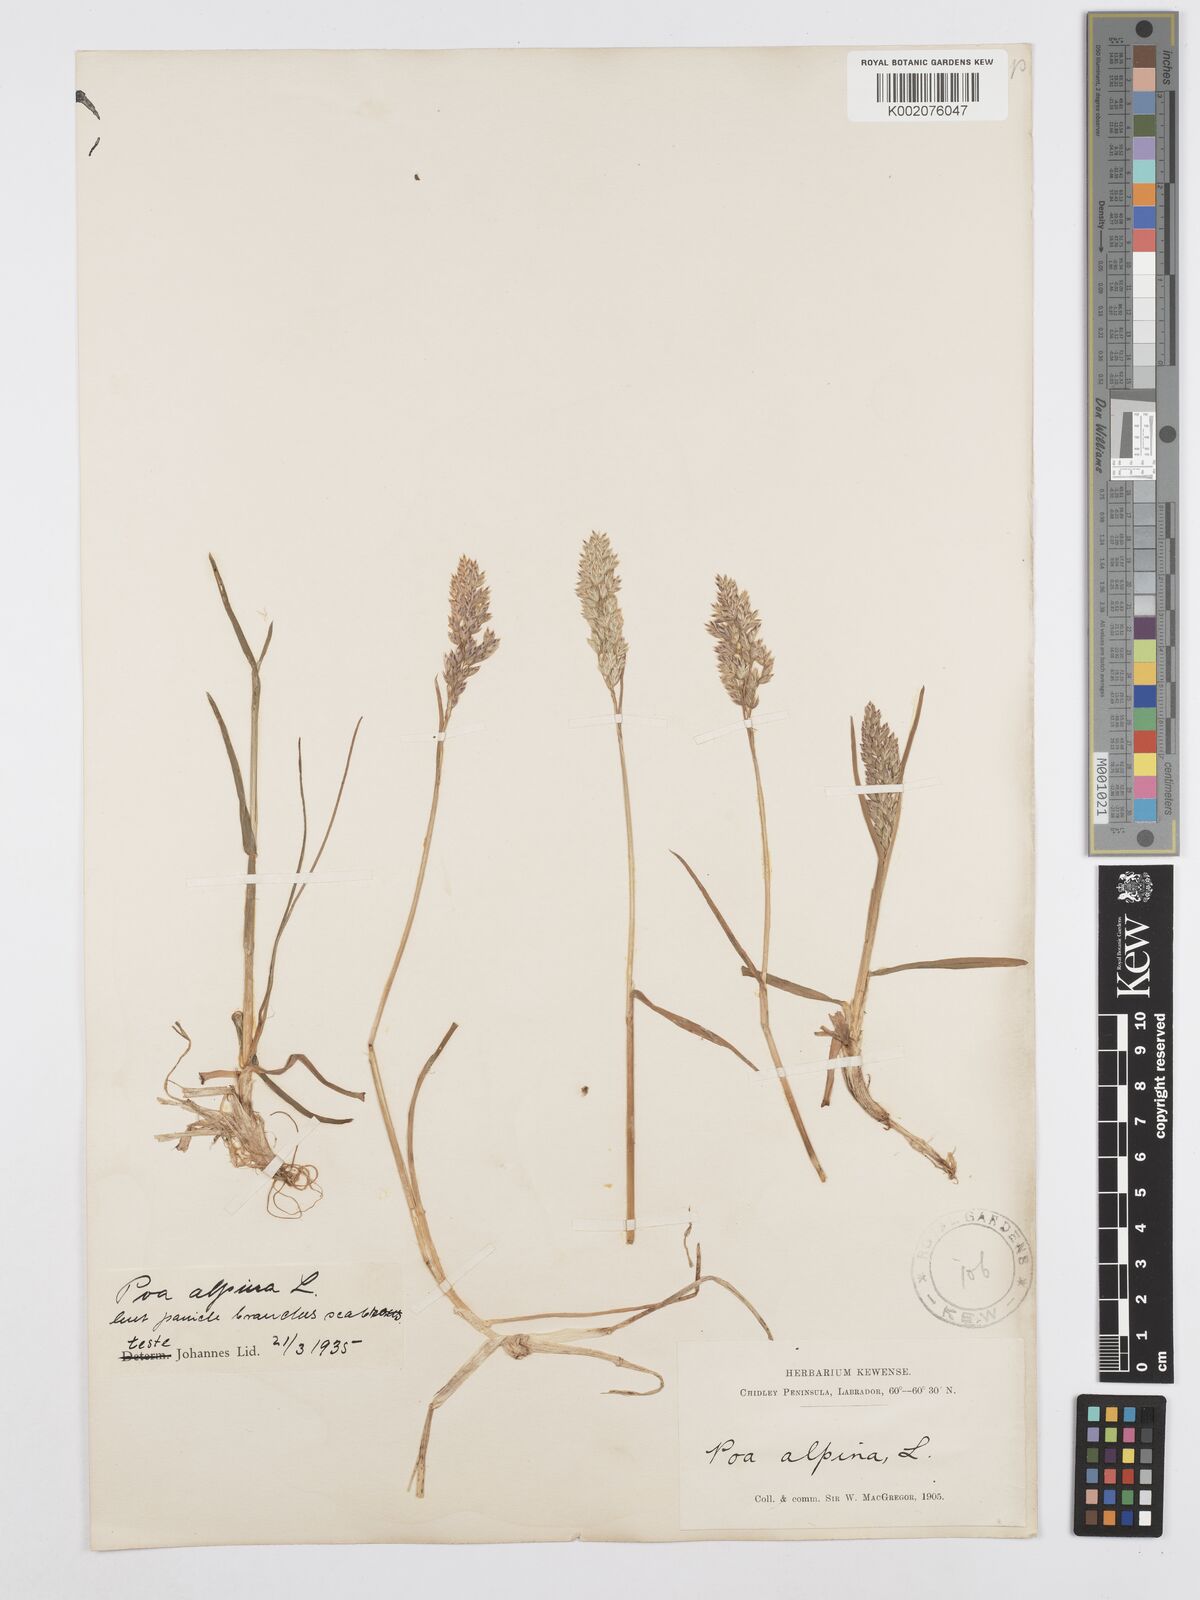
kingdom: Plantae
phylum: Tracheophyta
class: Liliopsida
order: Poales
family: Poaceae
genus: Poa
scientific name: Poa alpina
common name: Alpine bluegrass
